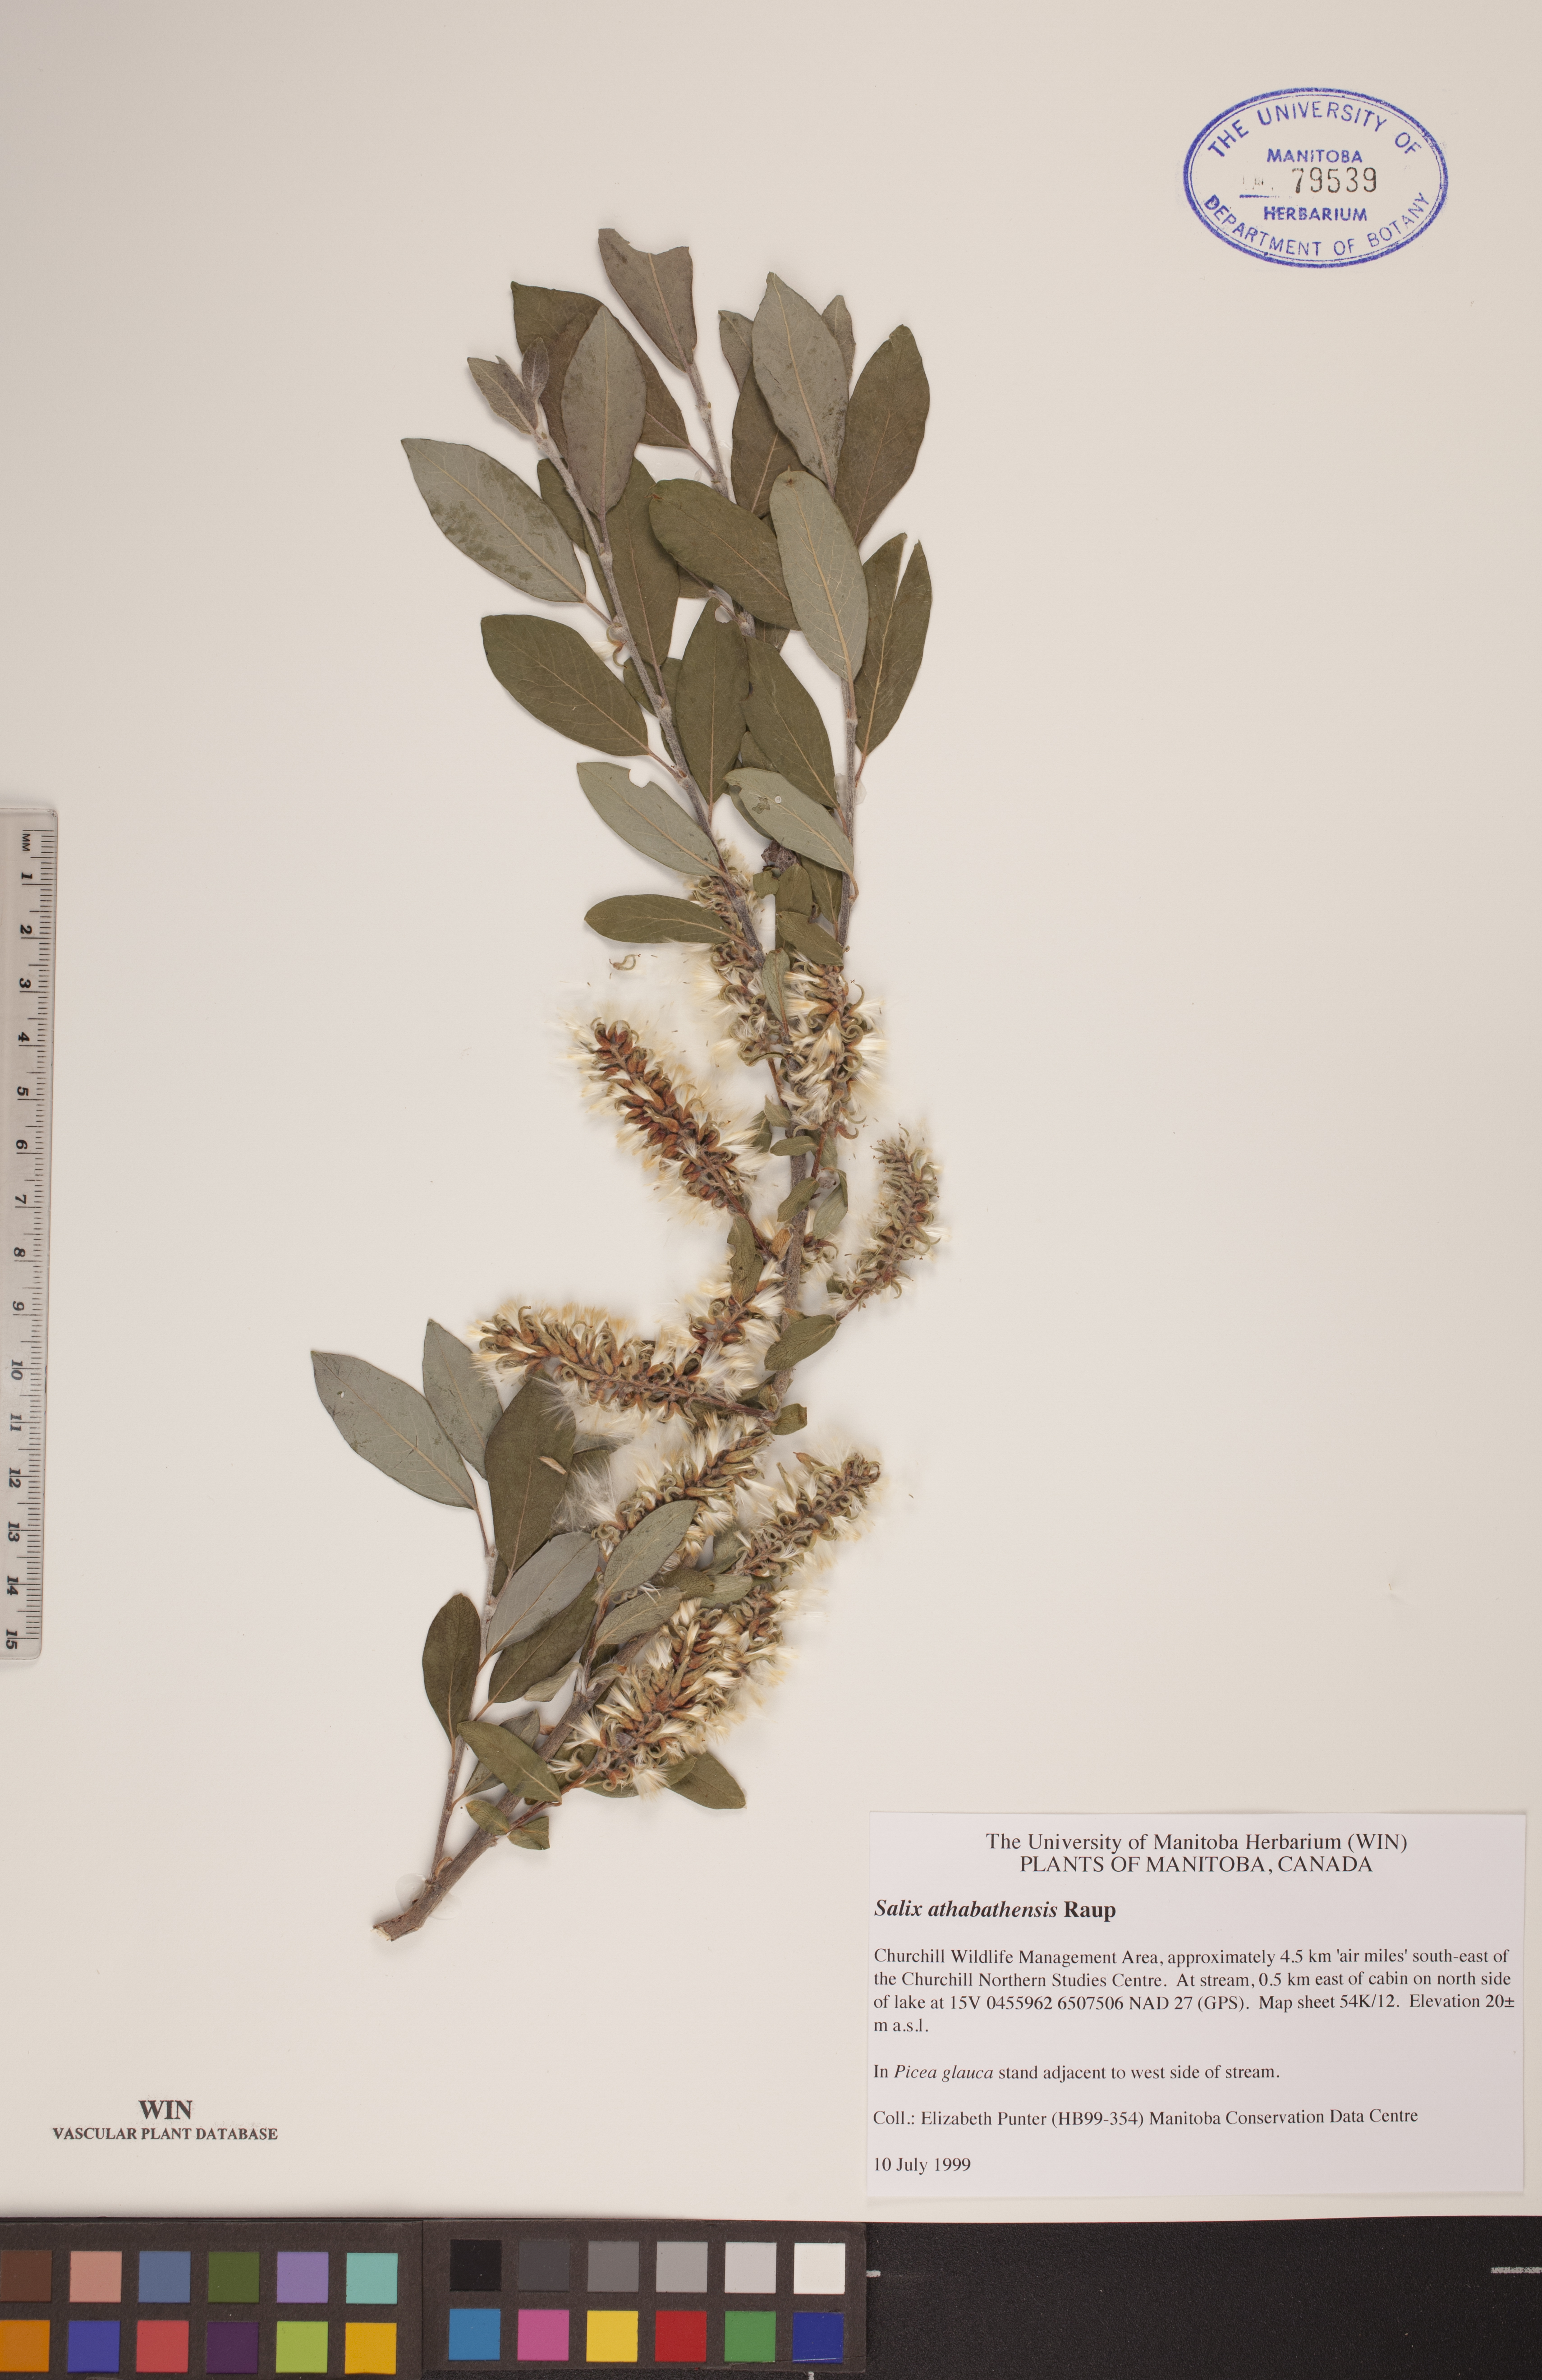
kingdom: Plantae
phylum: Tracheophyta
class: Magnoliopsida
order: Malpighiales
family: Salicaceae
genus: Salix
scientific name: Salix athabascensis
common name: Athabasca willow
